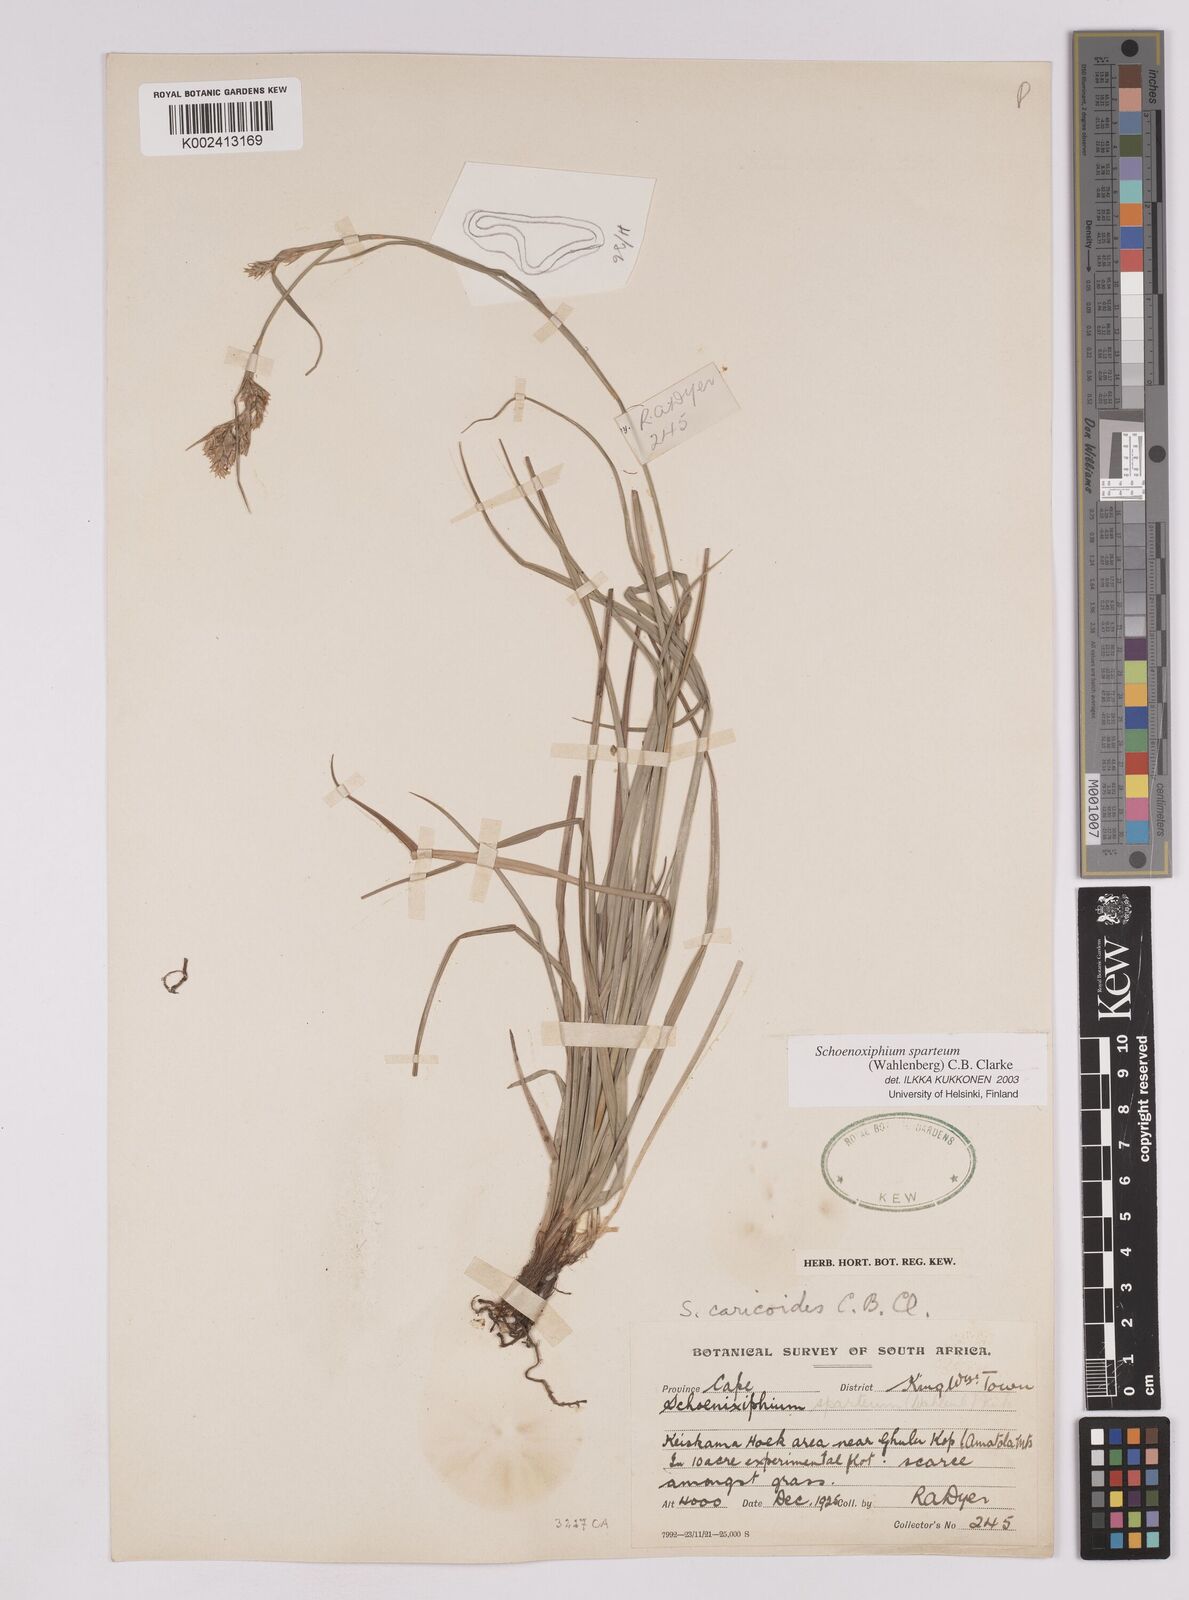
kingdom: Plantae
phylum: Tracheophyta
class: Liliopsida
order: Poales
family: Cyperaceae
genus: Carex
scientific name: Carex spartea
